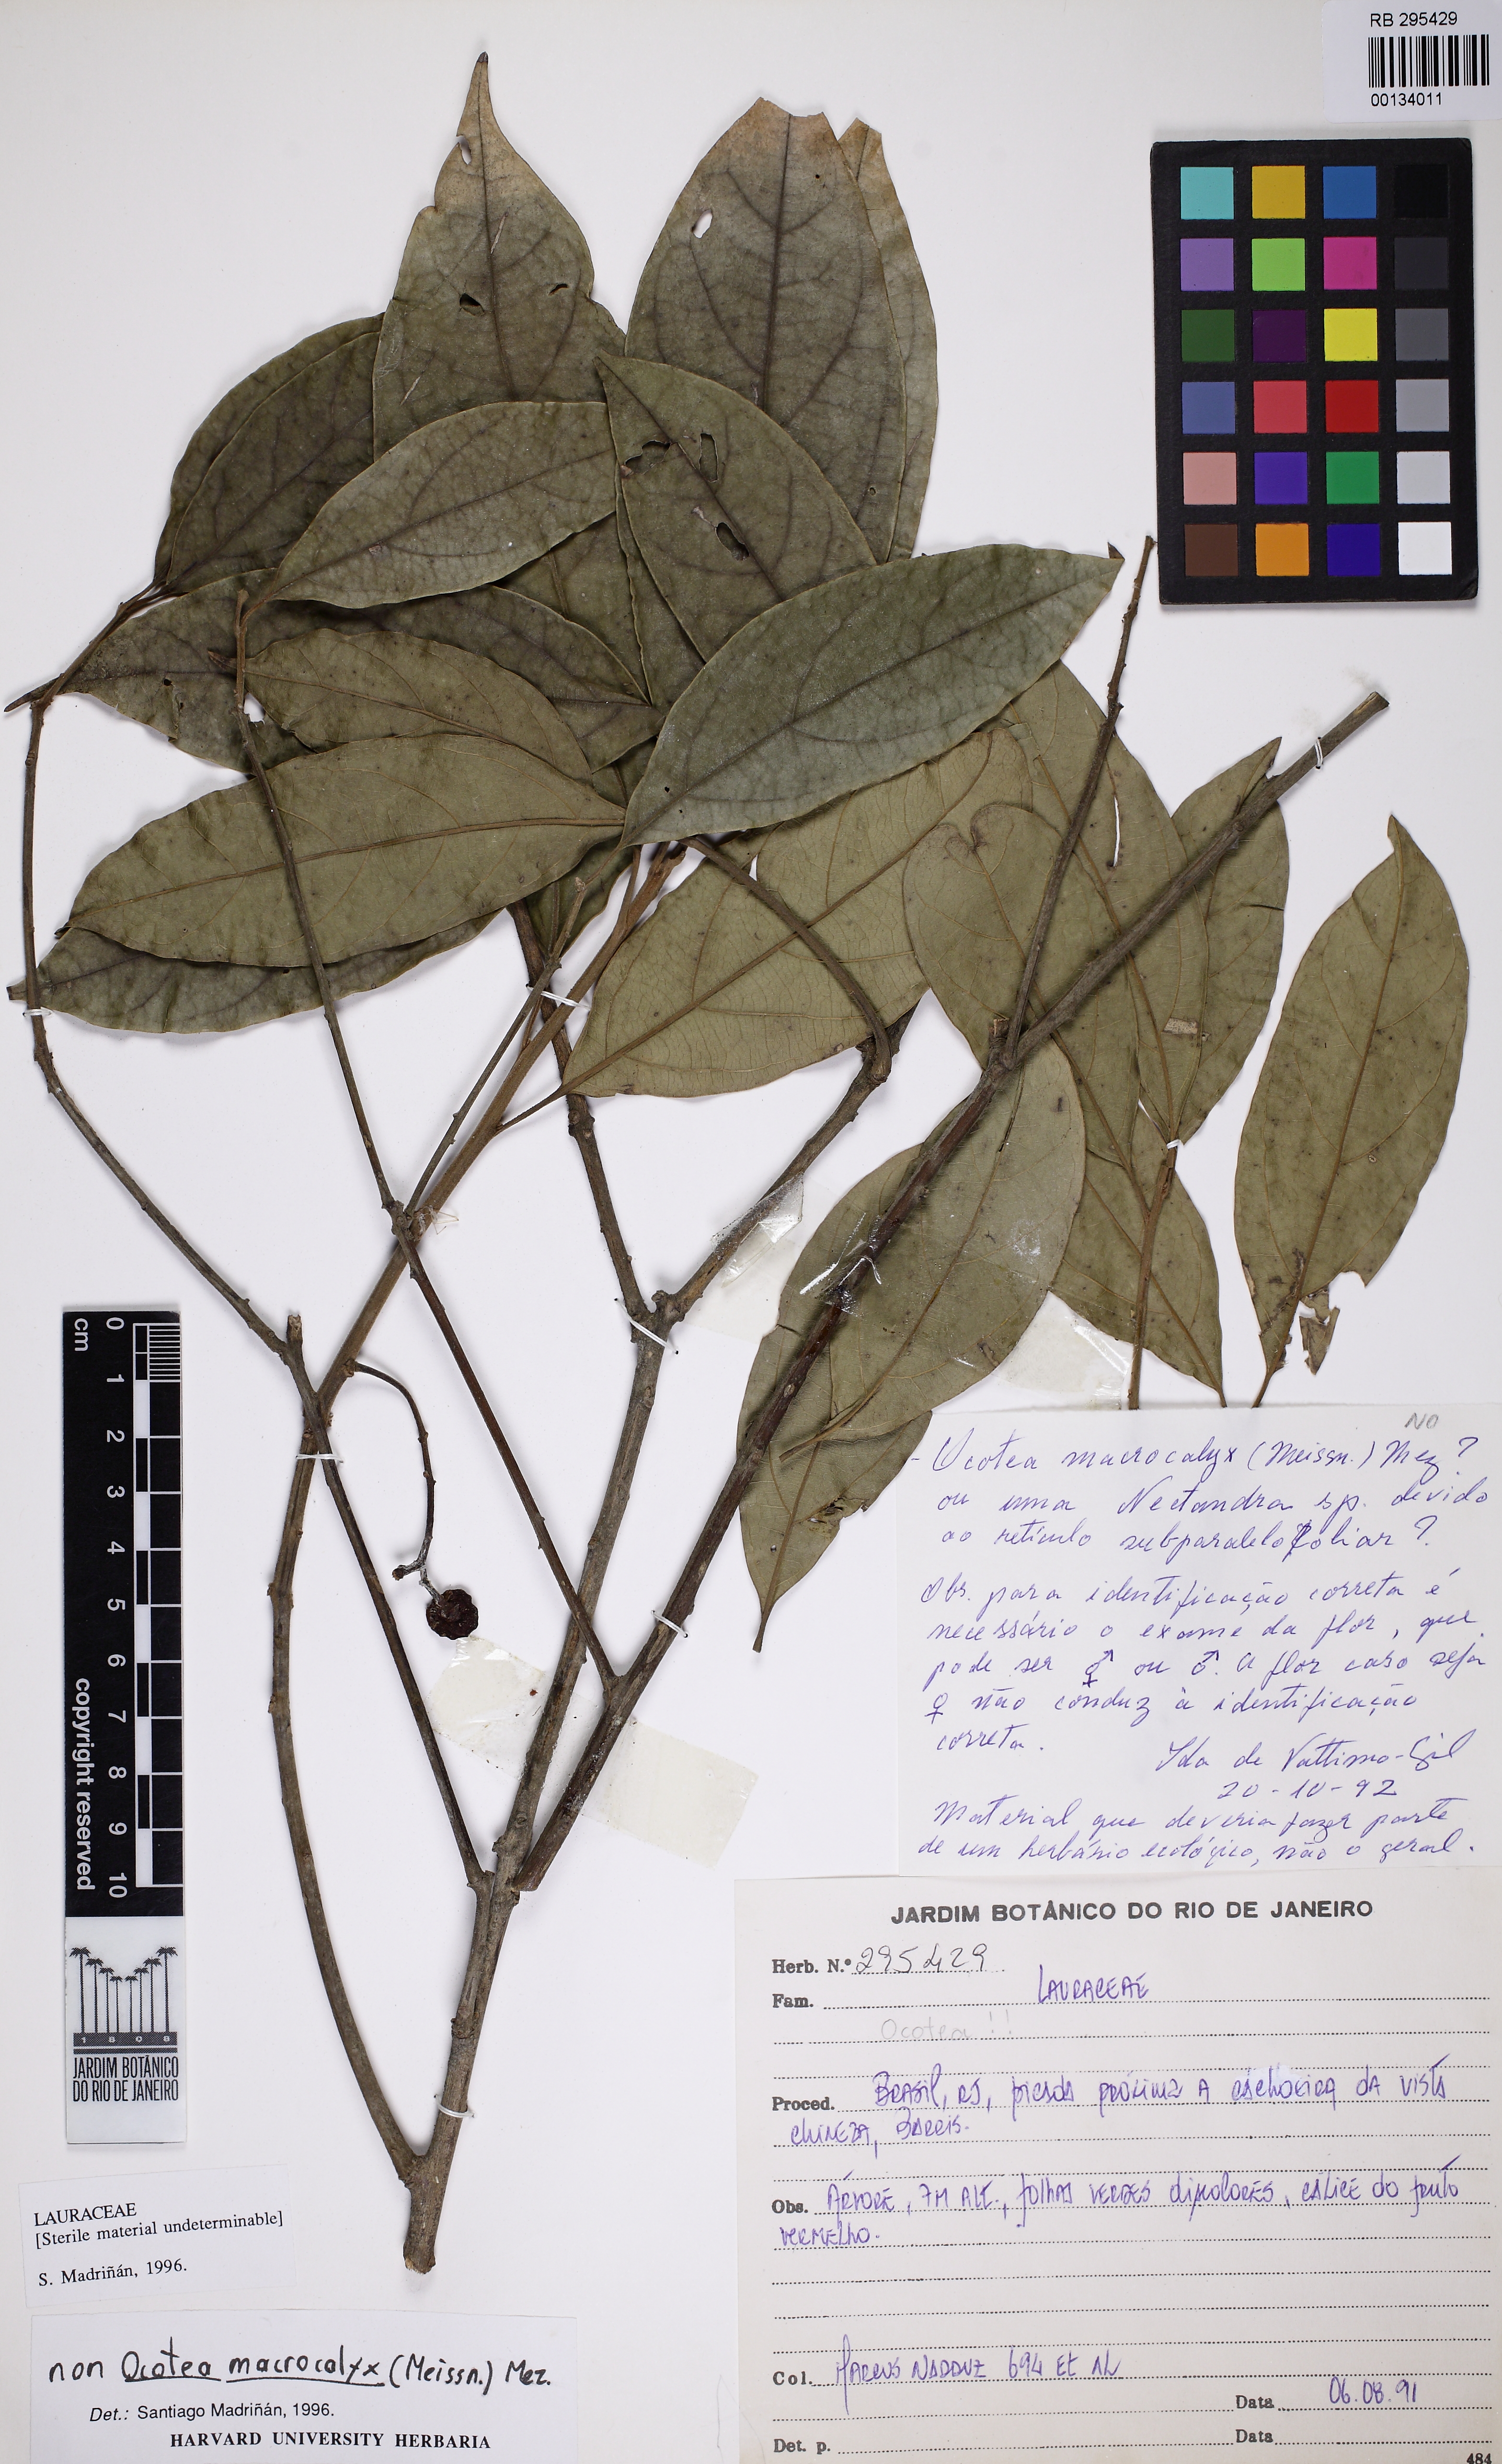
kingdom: Plantae
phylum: Tracheophyta
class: Magnoliopsida
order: Laurales
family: Lauraceae
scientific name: Lauraceae
